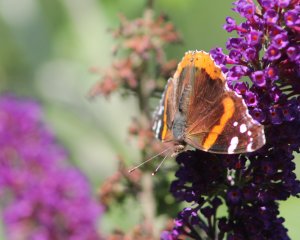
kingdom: Animalia
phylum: Arthropoda
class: Insecta
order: Lepidoptera
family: Nymphalidae
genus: Vanessa
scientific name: Vanessa atalanta
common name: Red Admiral
